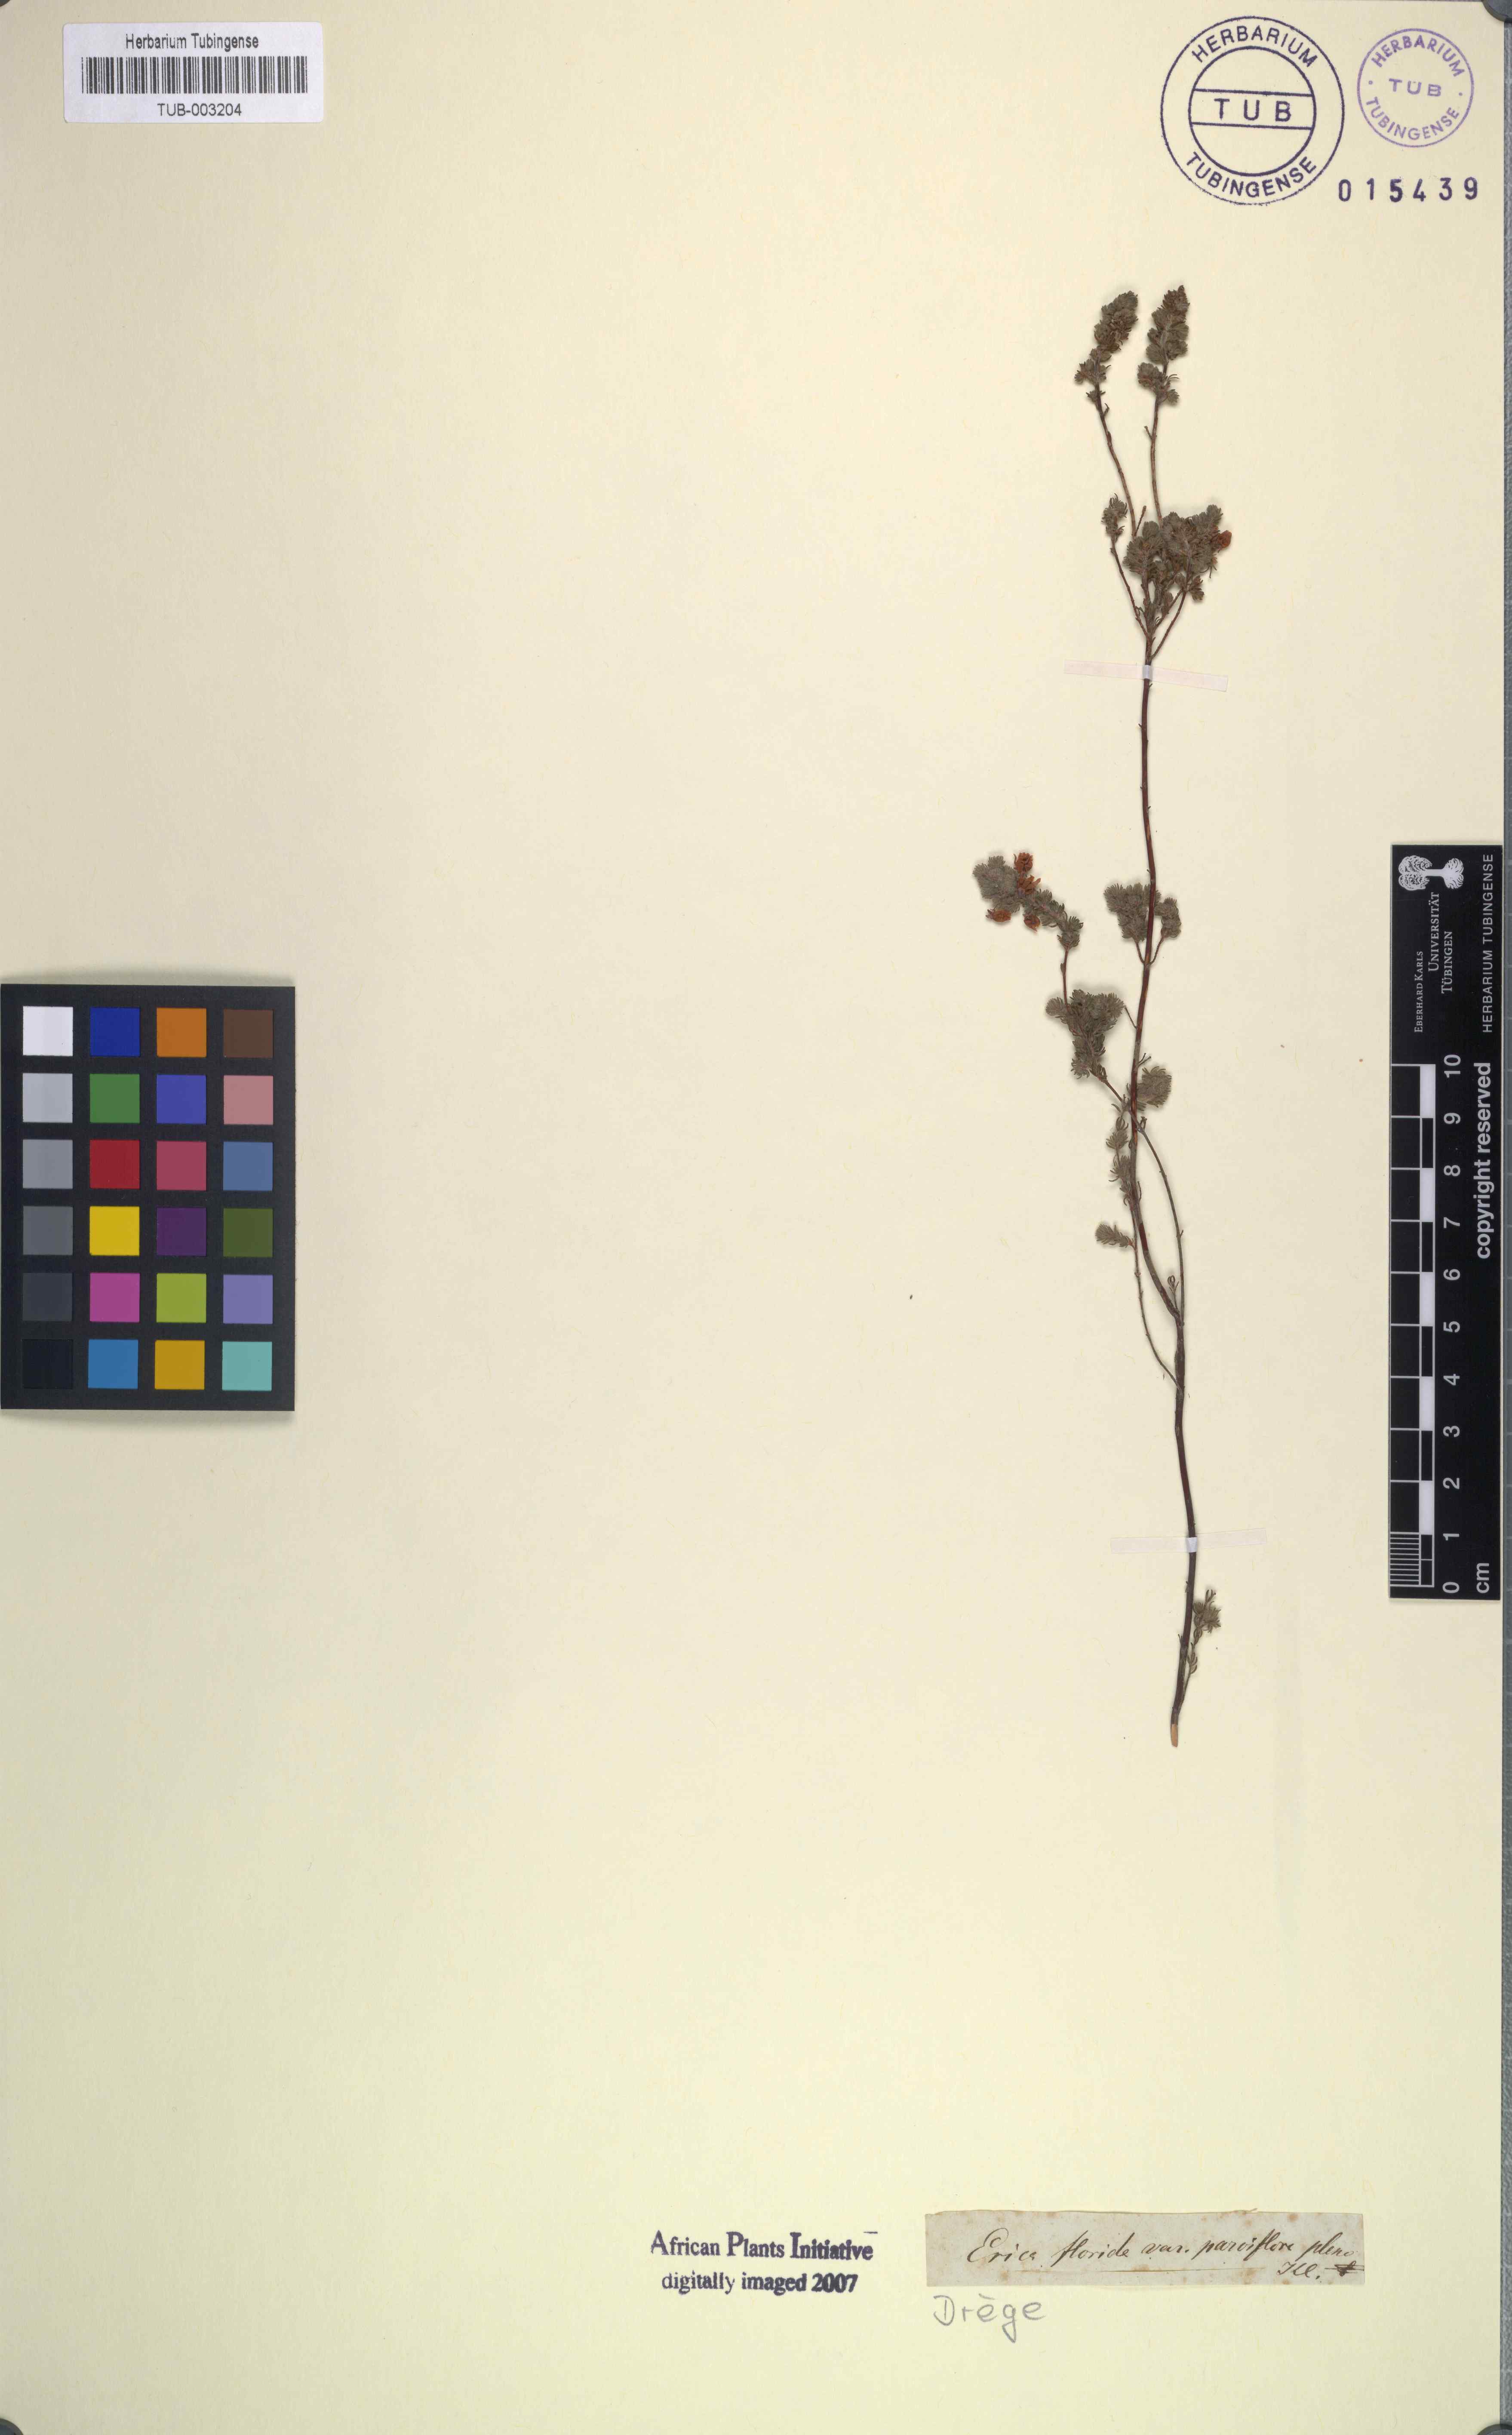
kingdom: Plantae
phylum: Tracheophyta
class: Magnoliopsida
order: Ericales
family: Ericaceae
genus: Erica
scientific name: Erica bergiana
